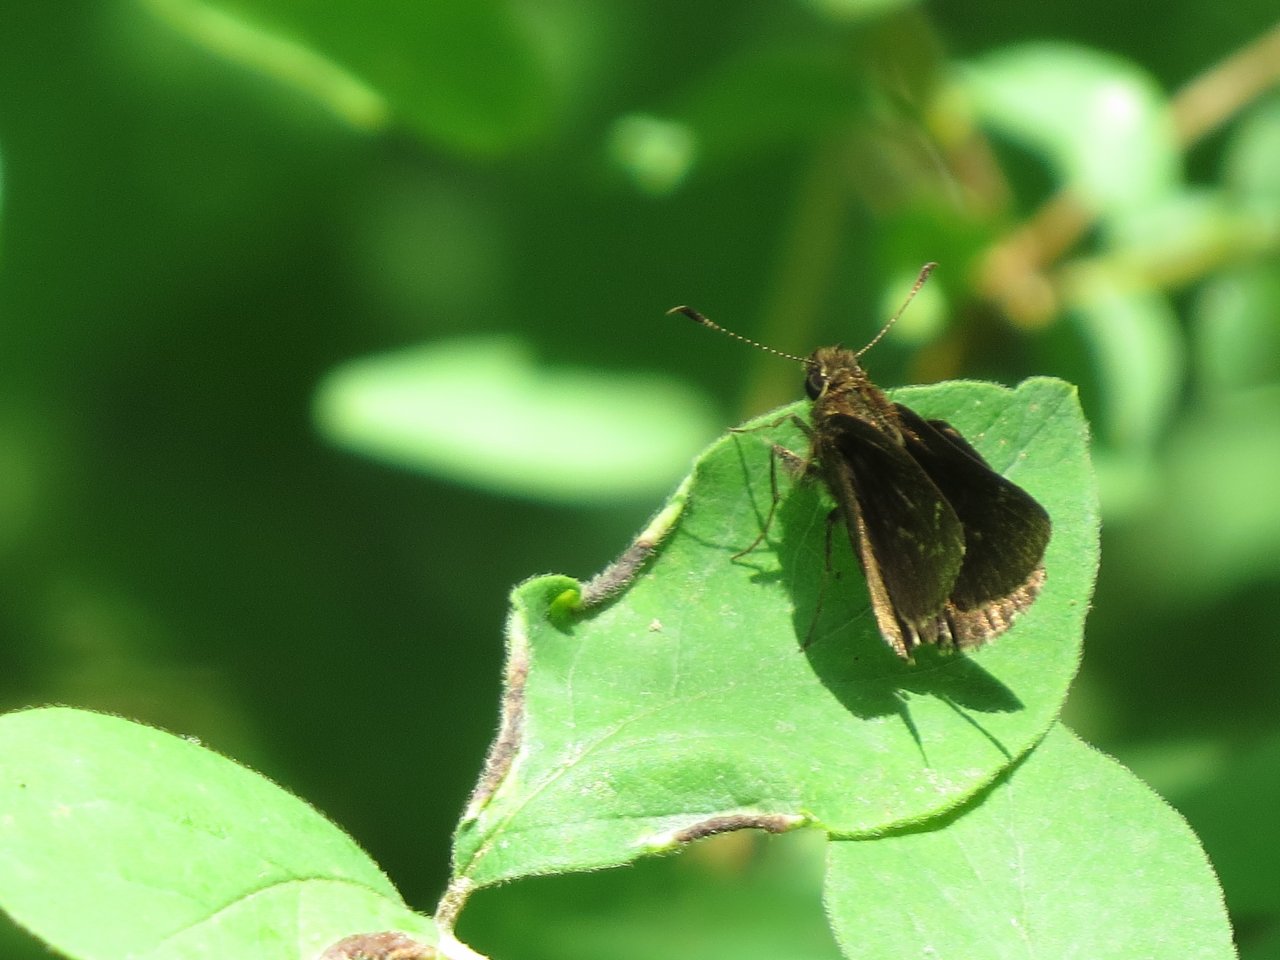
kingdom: Animalia
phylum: Arthropoda
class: Insecta
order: Lepidoptera
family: Hesperiidae
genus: Mastor
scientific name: Mastor celia
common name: Bell's Roadside-Skipper
